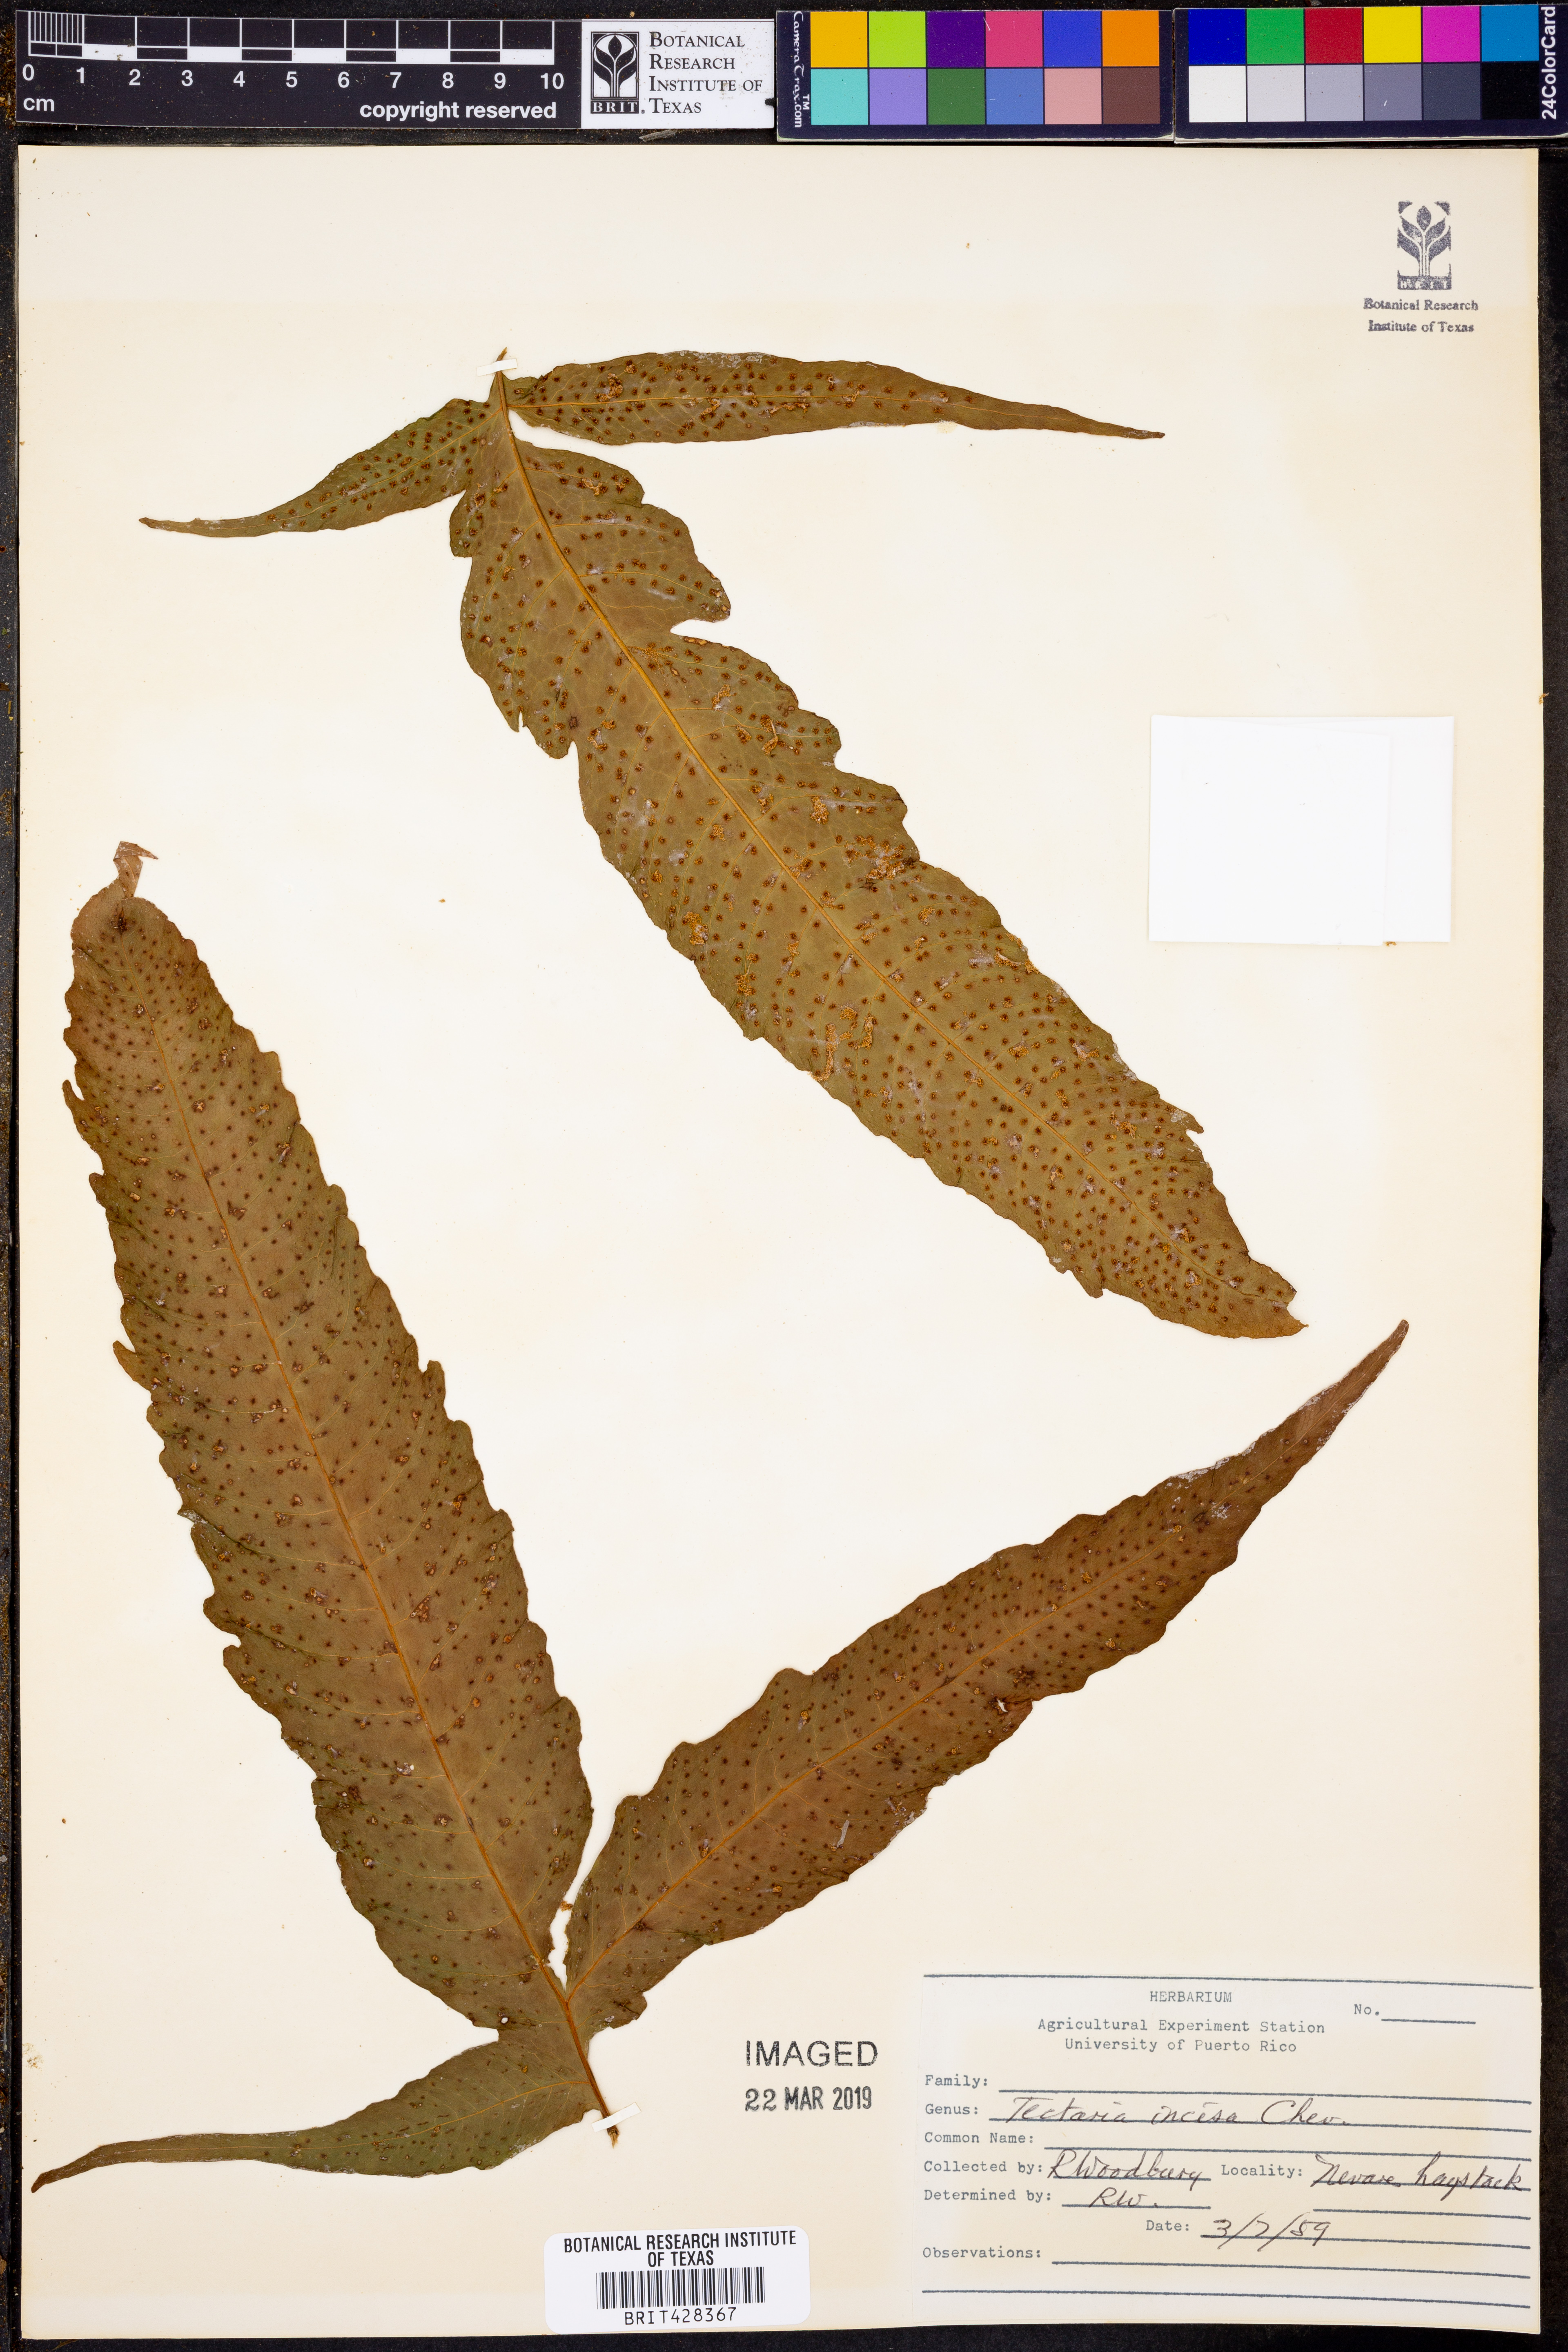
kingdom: Plantae
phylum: Tracheophyta
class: Polypodiopsida
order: Polypodiales
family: Tectariaceae
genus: Tectaria
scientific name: Tectaria incisa
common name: Incised halberd fern
